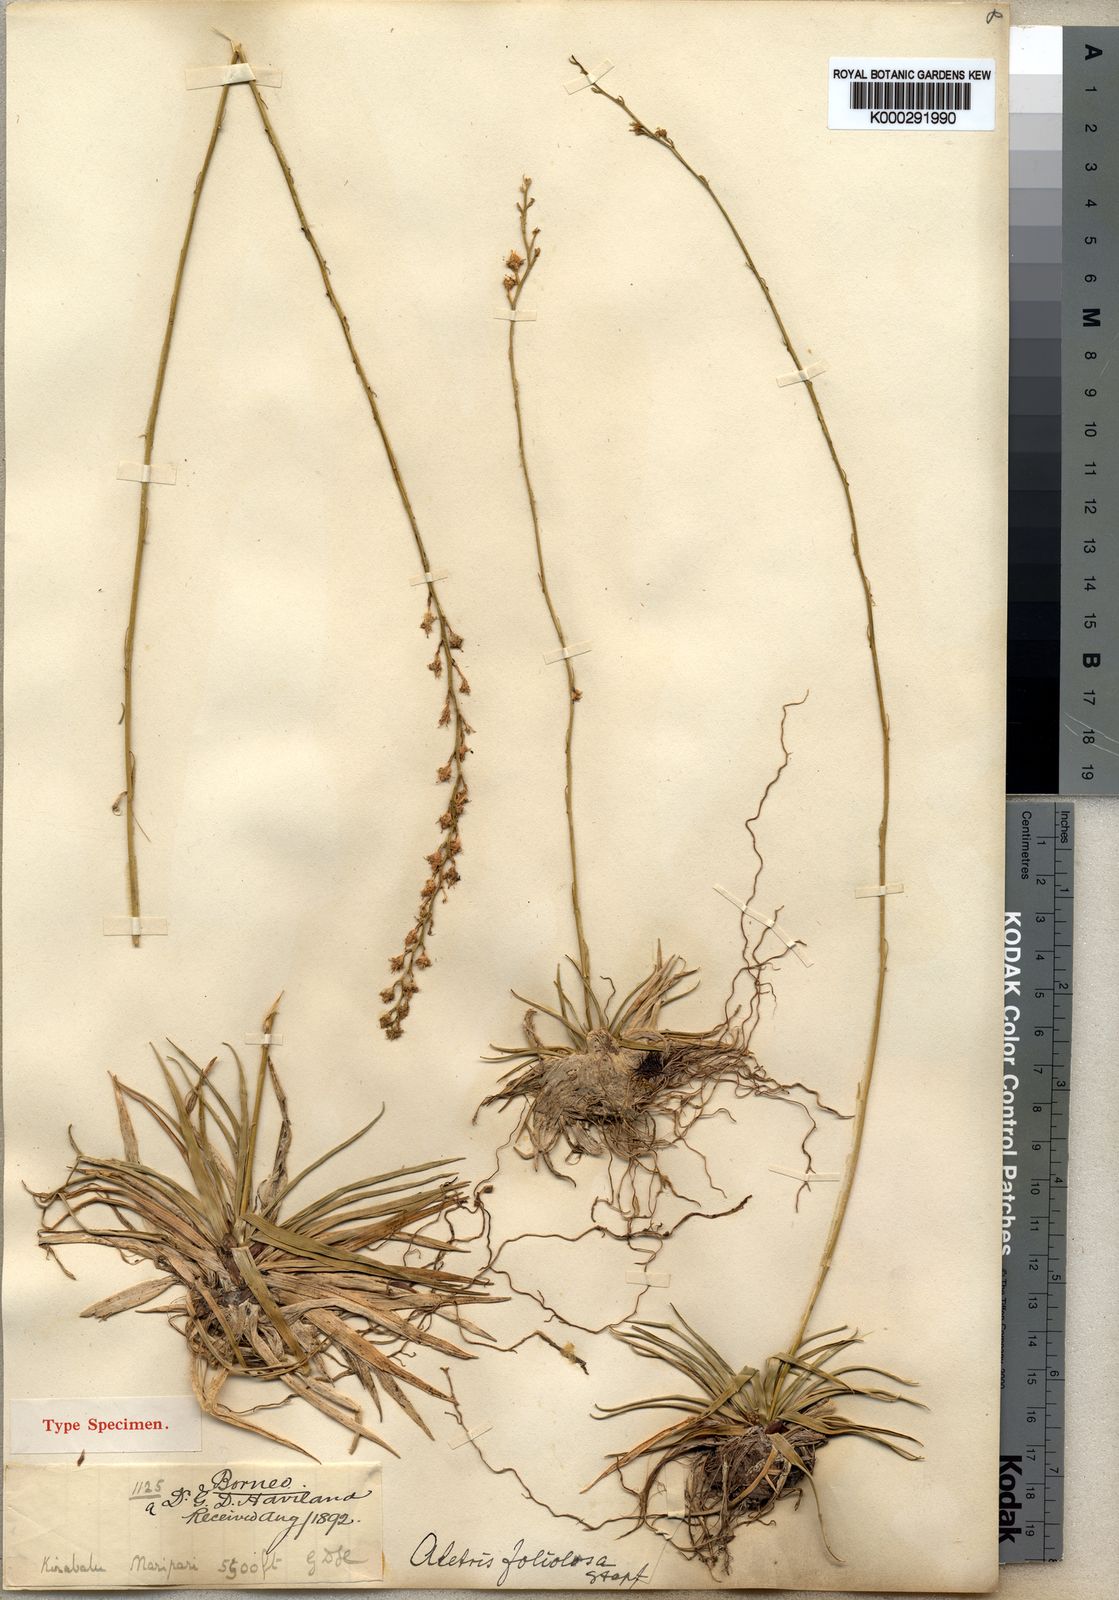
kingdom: Plantae
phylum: Tracheophyta
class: Liliopsida
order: Dioscoreales
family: Nartheciaceae
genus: Aletris
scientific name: Aletris foliolosa
